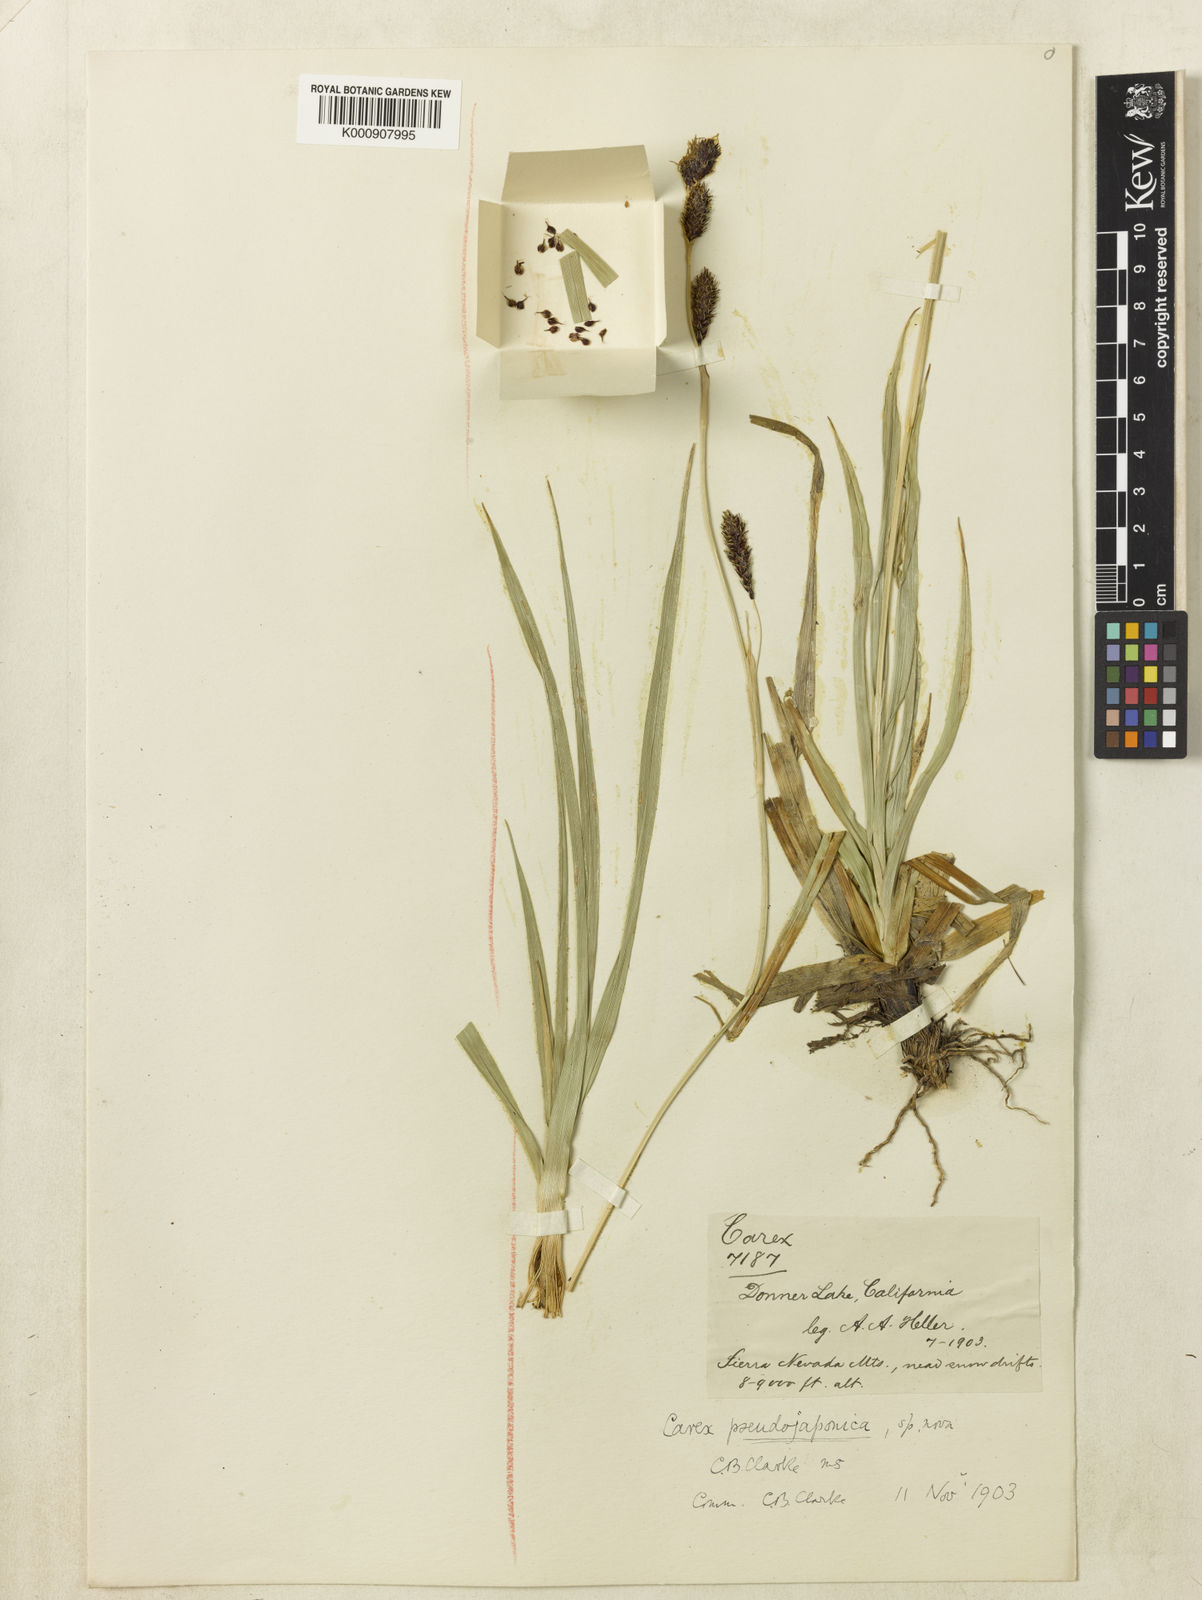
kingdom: Plantae
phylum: Tracheophyta
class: Liliopsida
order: Poales
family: Cyperaceae
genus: Carex
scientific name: Carex luzulifolia
